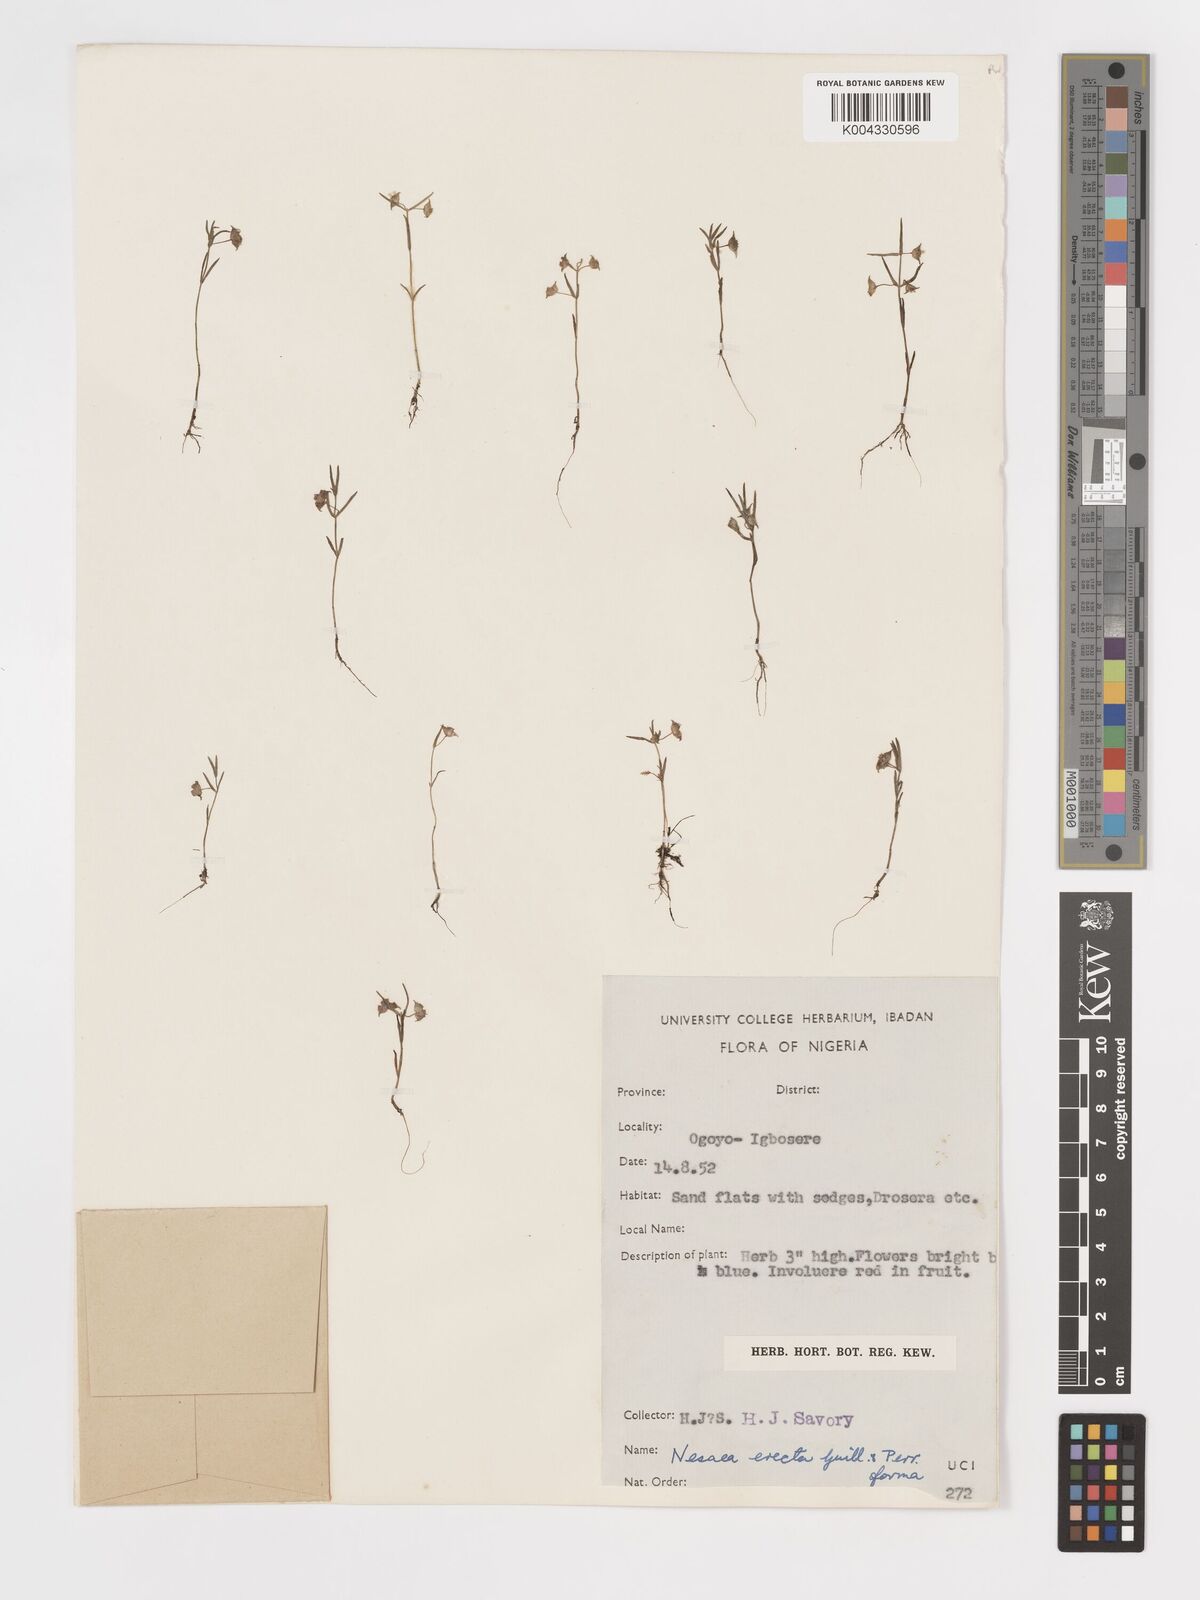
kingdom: Plantae
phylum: Tracheophyta
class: Magnoliopsida
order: Myrtales
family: Lythraceae
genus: Ammannia
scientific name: Ammannia erecta
